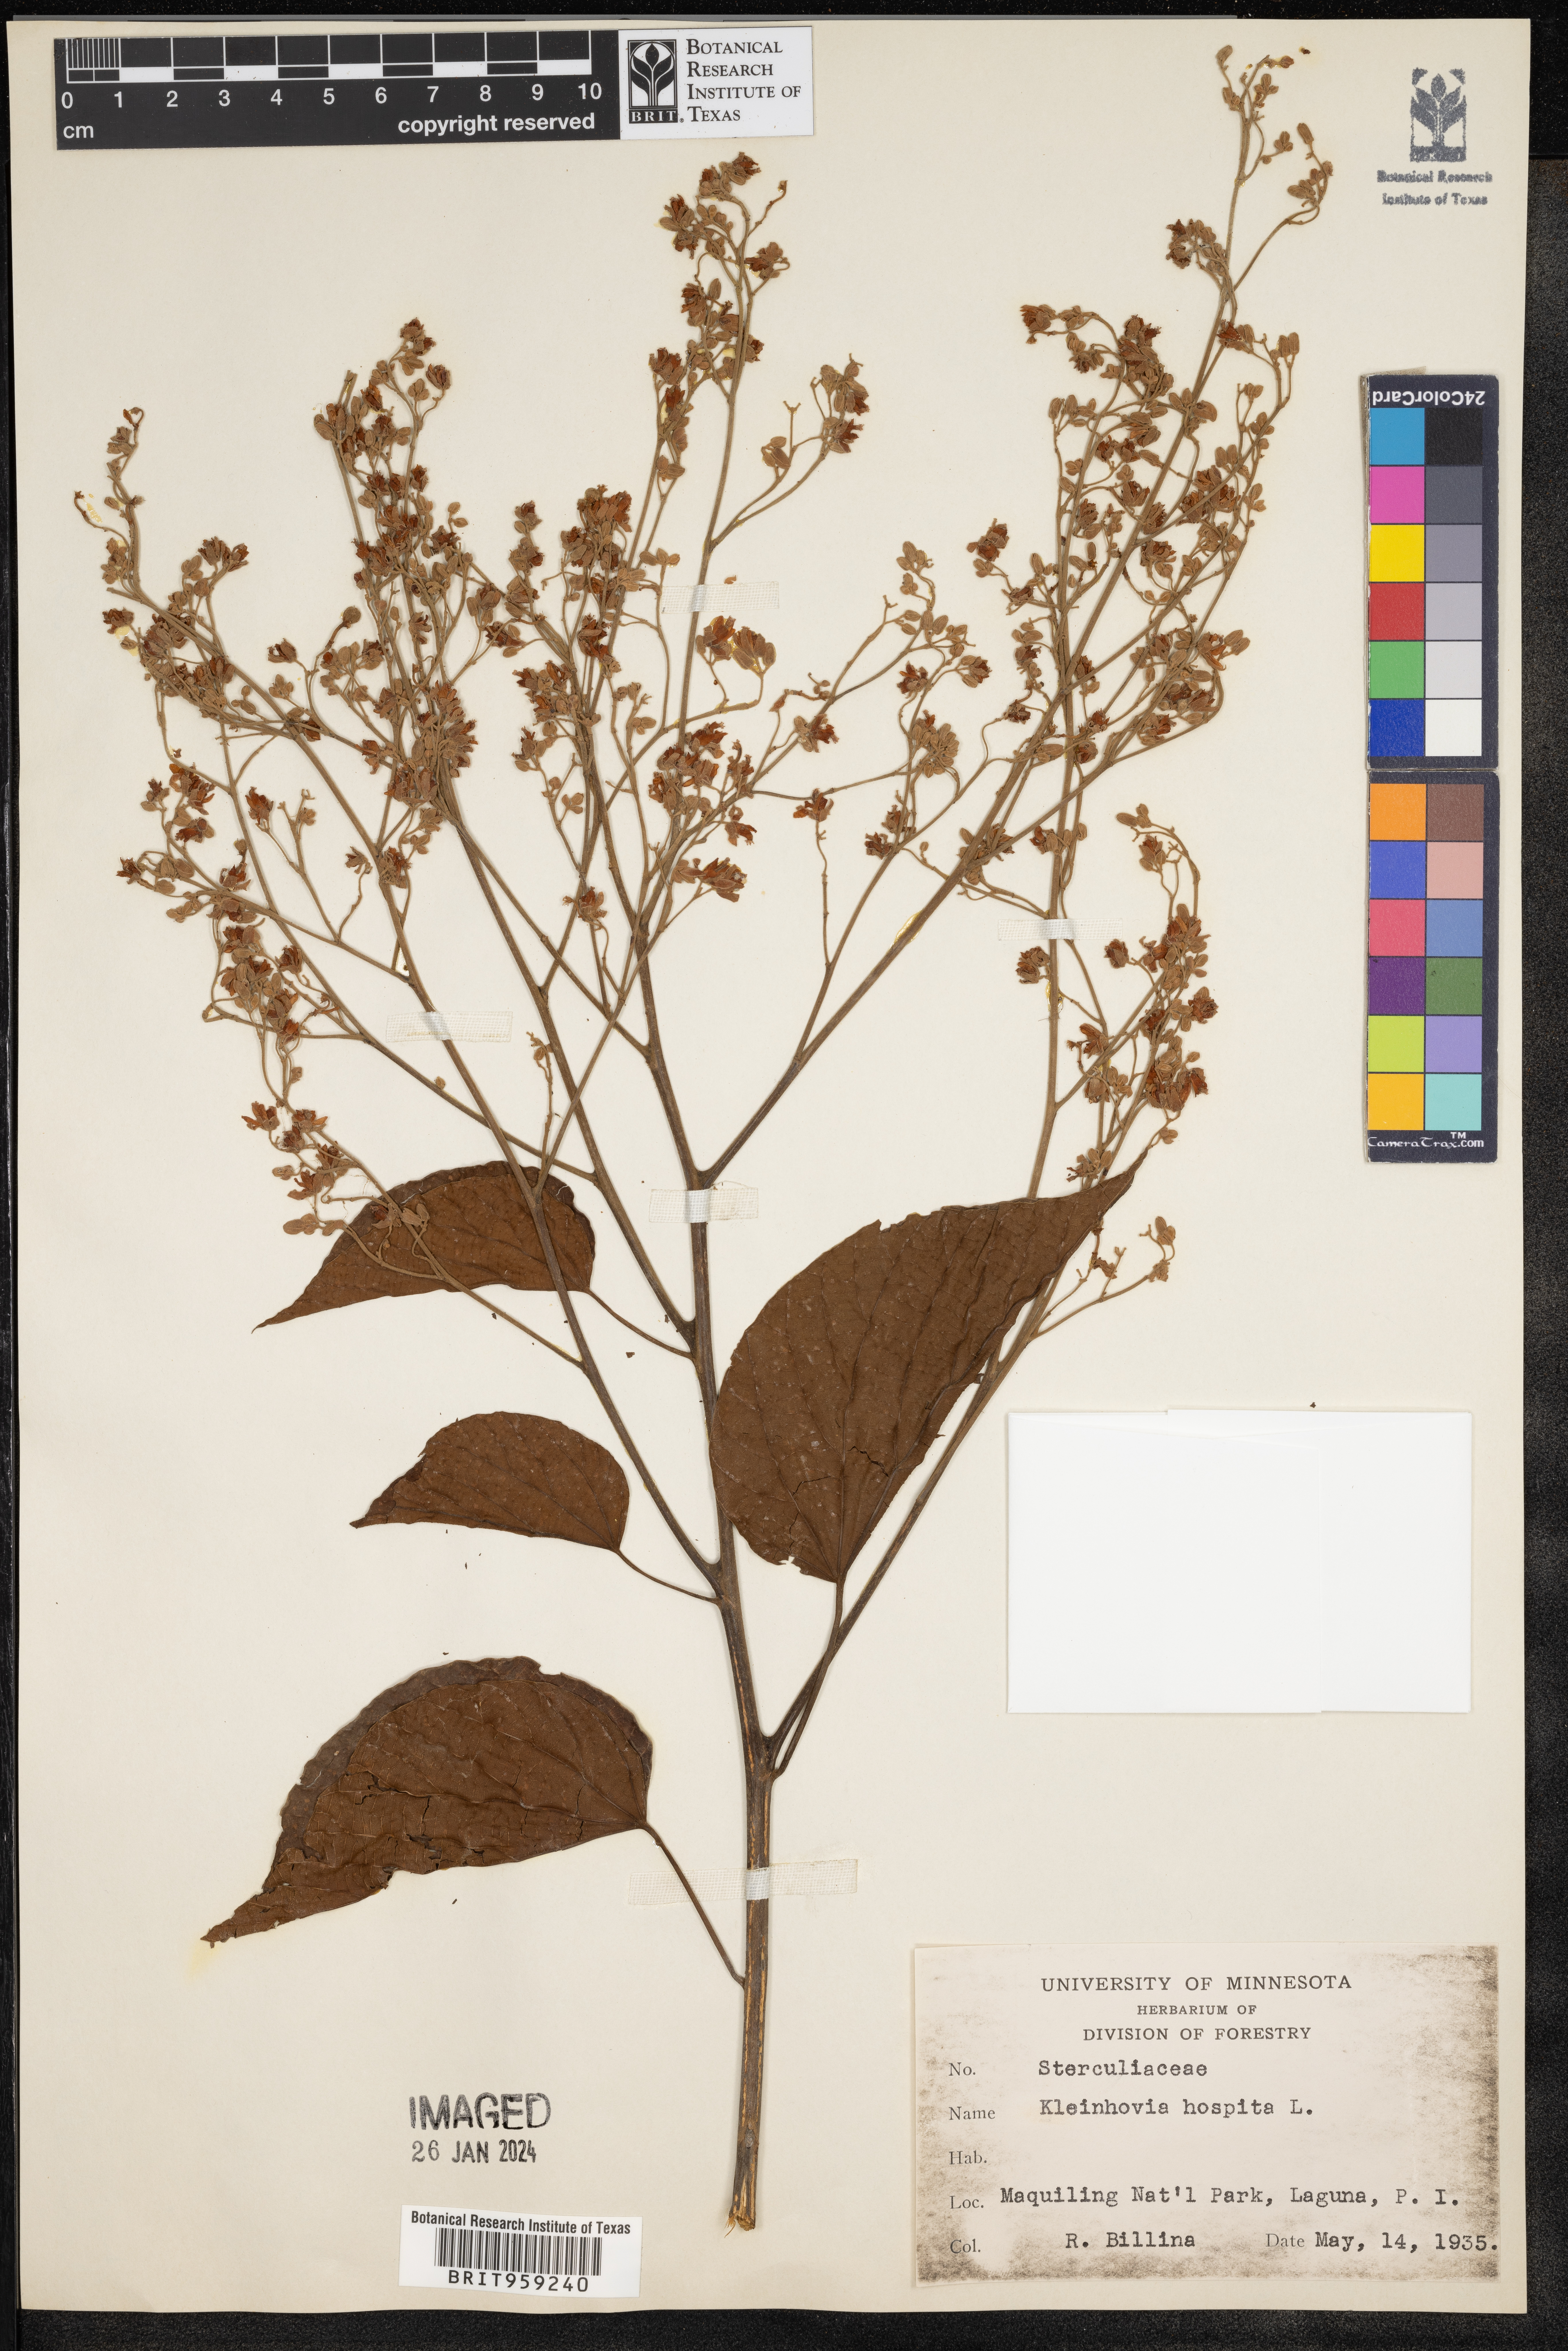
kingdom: Plantae
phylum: Tracheophyta
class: Magnoliopsida
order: Malvales
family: Malvaceae
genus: Kleinhovia
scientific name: Kleinhovia hospita
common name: Guest-tree
